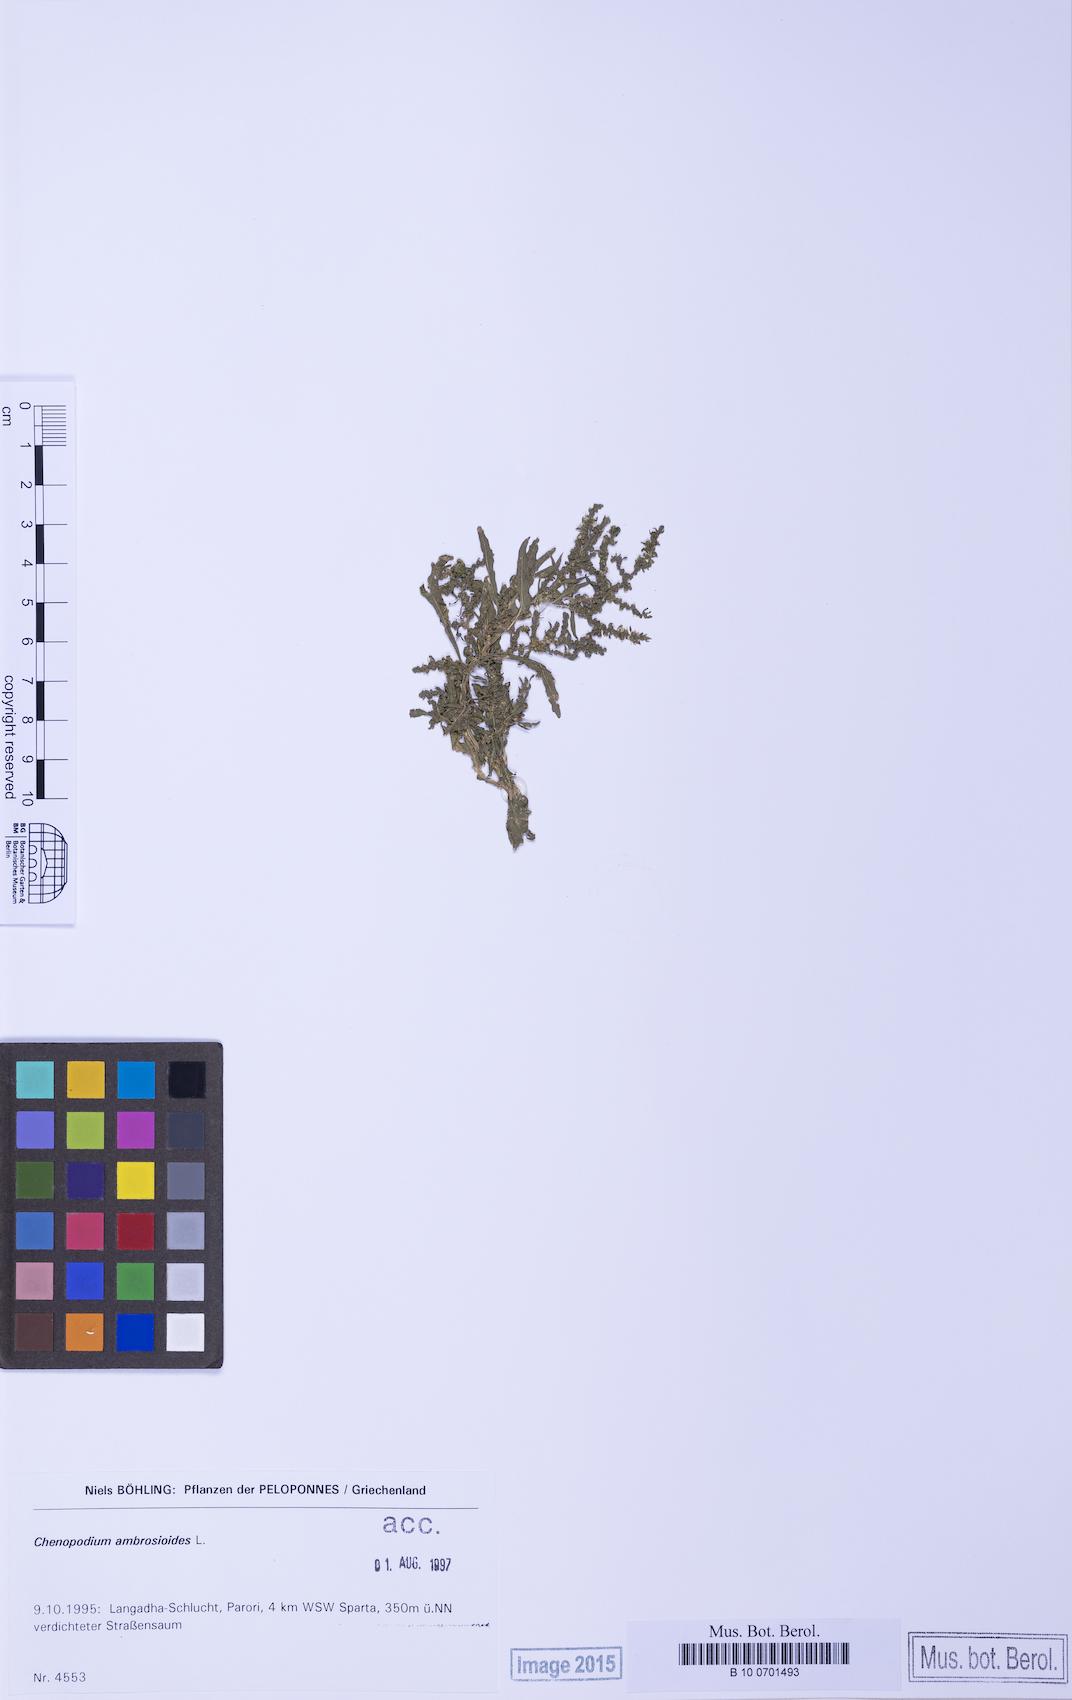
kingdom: Plantae
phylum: Tracheophyta
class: Magnoliopsida
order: Caryophyllales
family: Amaranthaceae
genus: Dysphania
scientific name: Dysphania ambrosioides
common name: Wormseed
